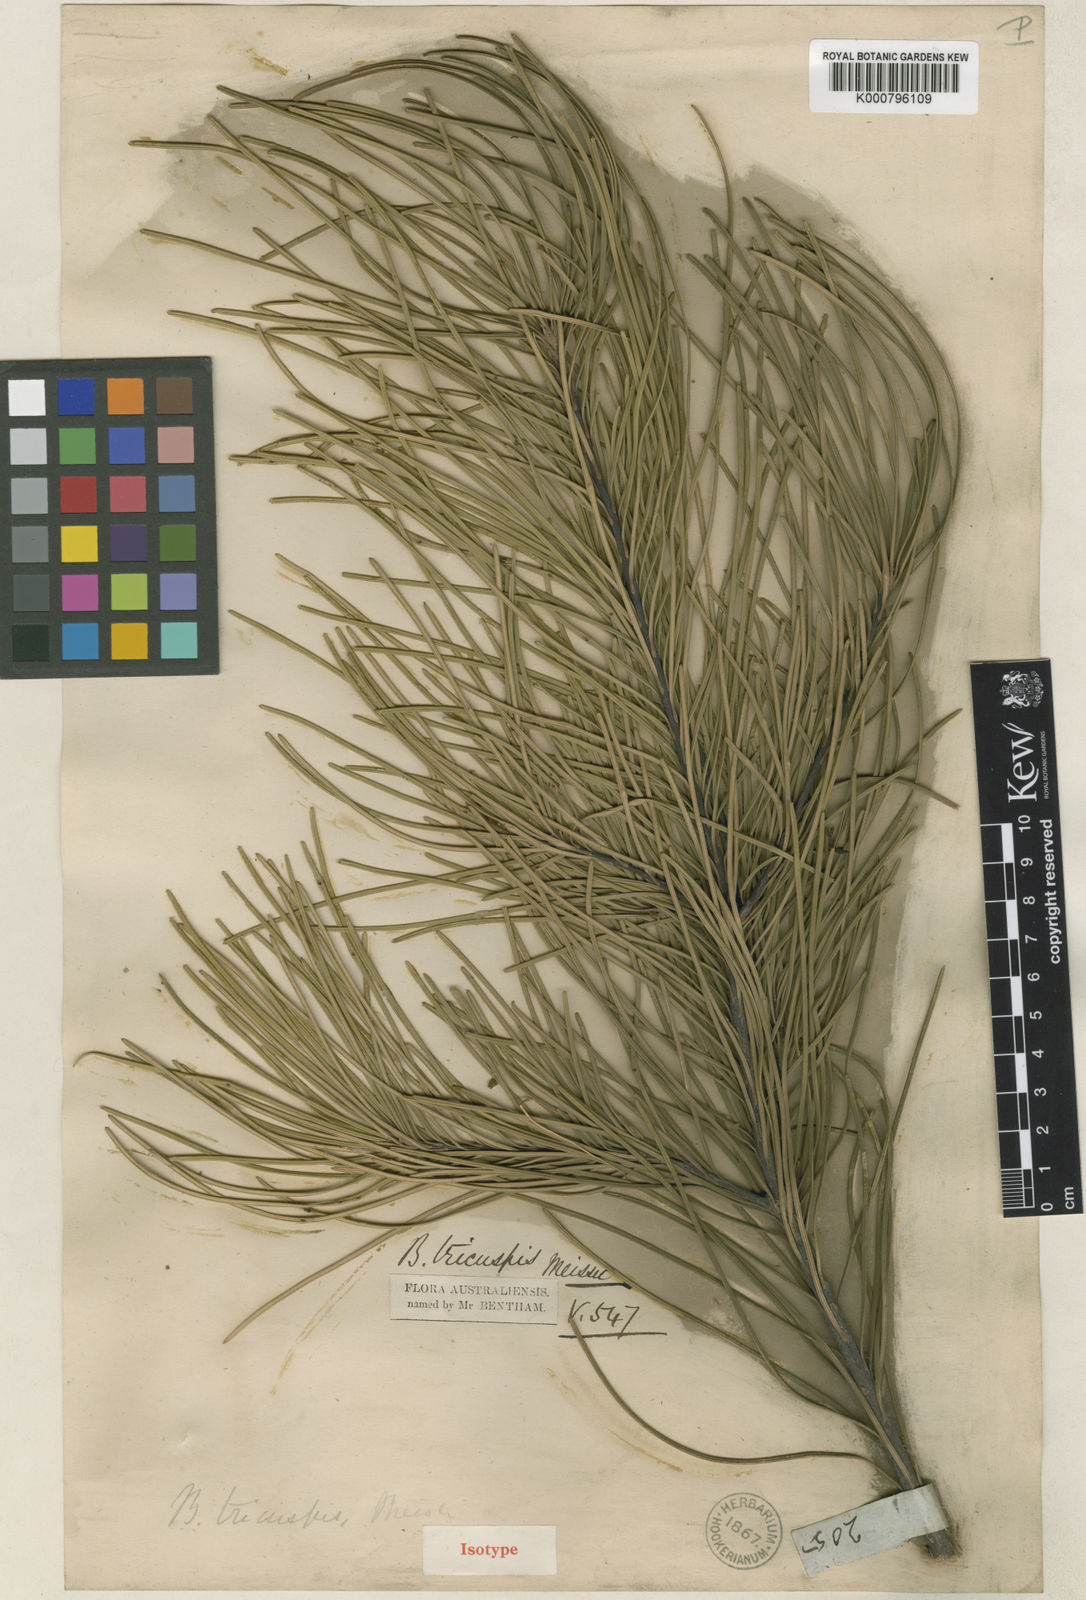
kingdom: Plantae
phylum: Tracheophyta
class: Magnoliopsida
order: Proteales
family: Proteaceae
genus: Banksia
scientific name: Banksia tricuspis
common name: Lesueur banksia
